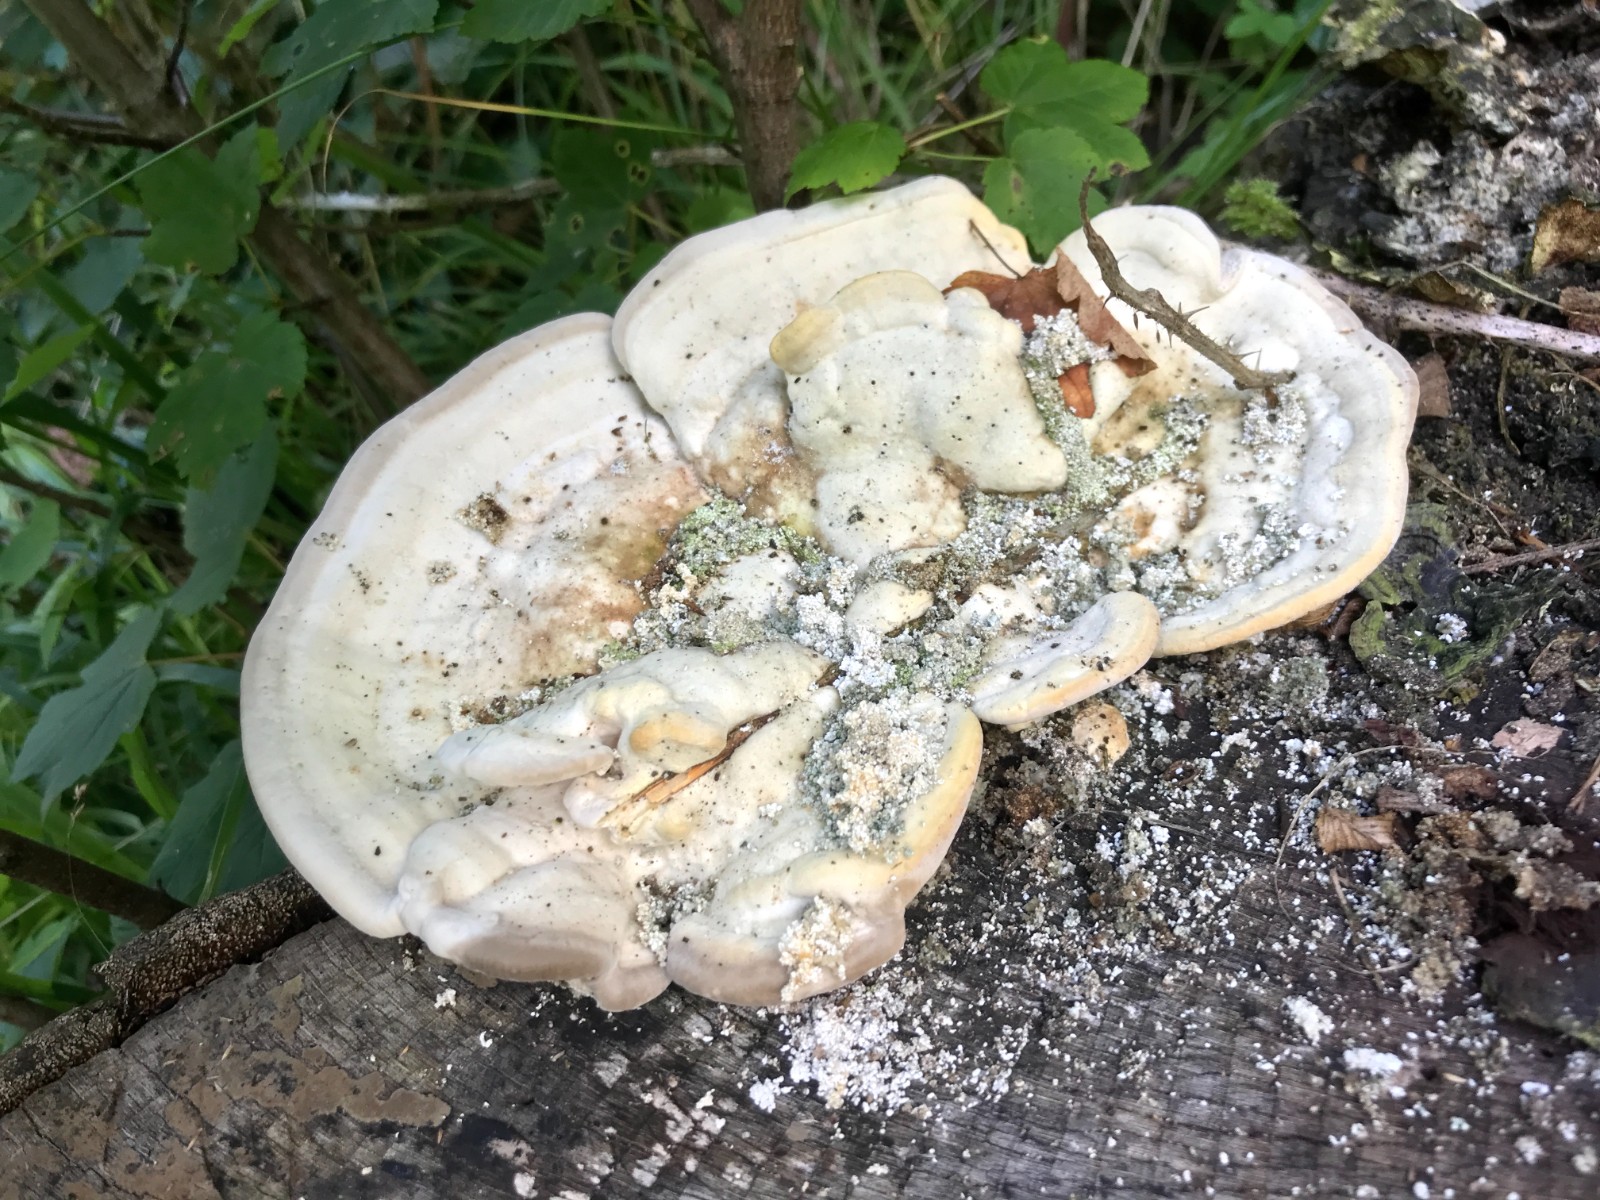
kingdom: Fungi
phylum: Basidiomycota
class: Agaricomycetes
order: Polyporales
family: Polyporaceae
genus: Trametes
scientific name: Trametes gibbosa
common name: puklet læderporesvamp
